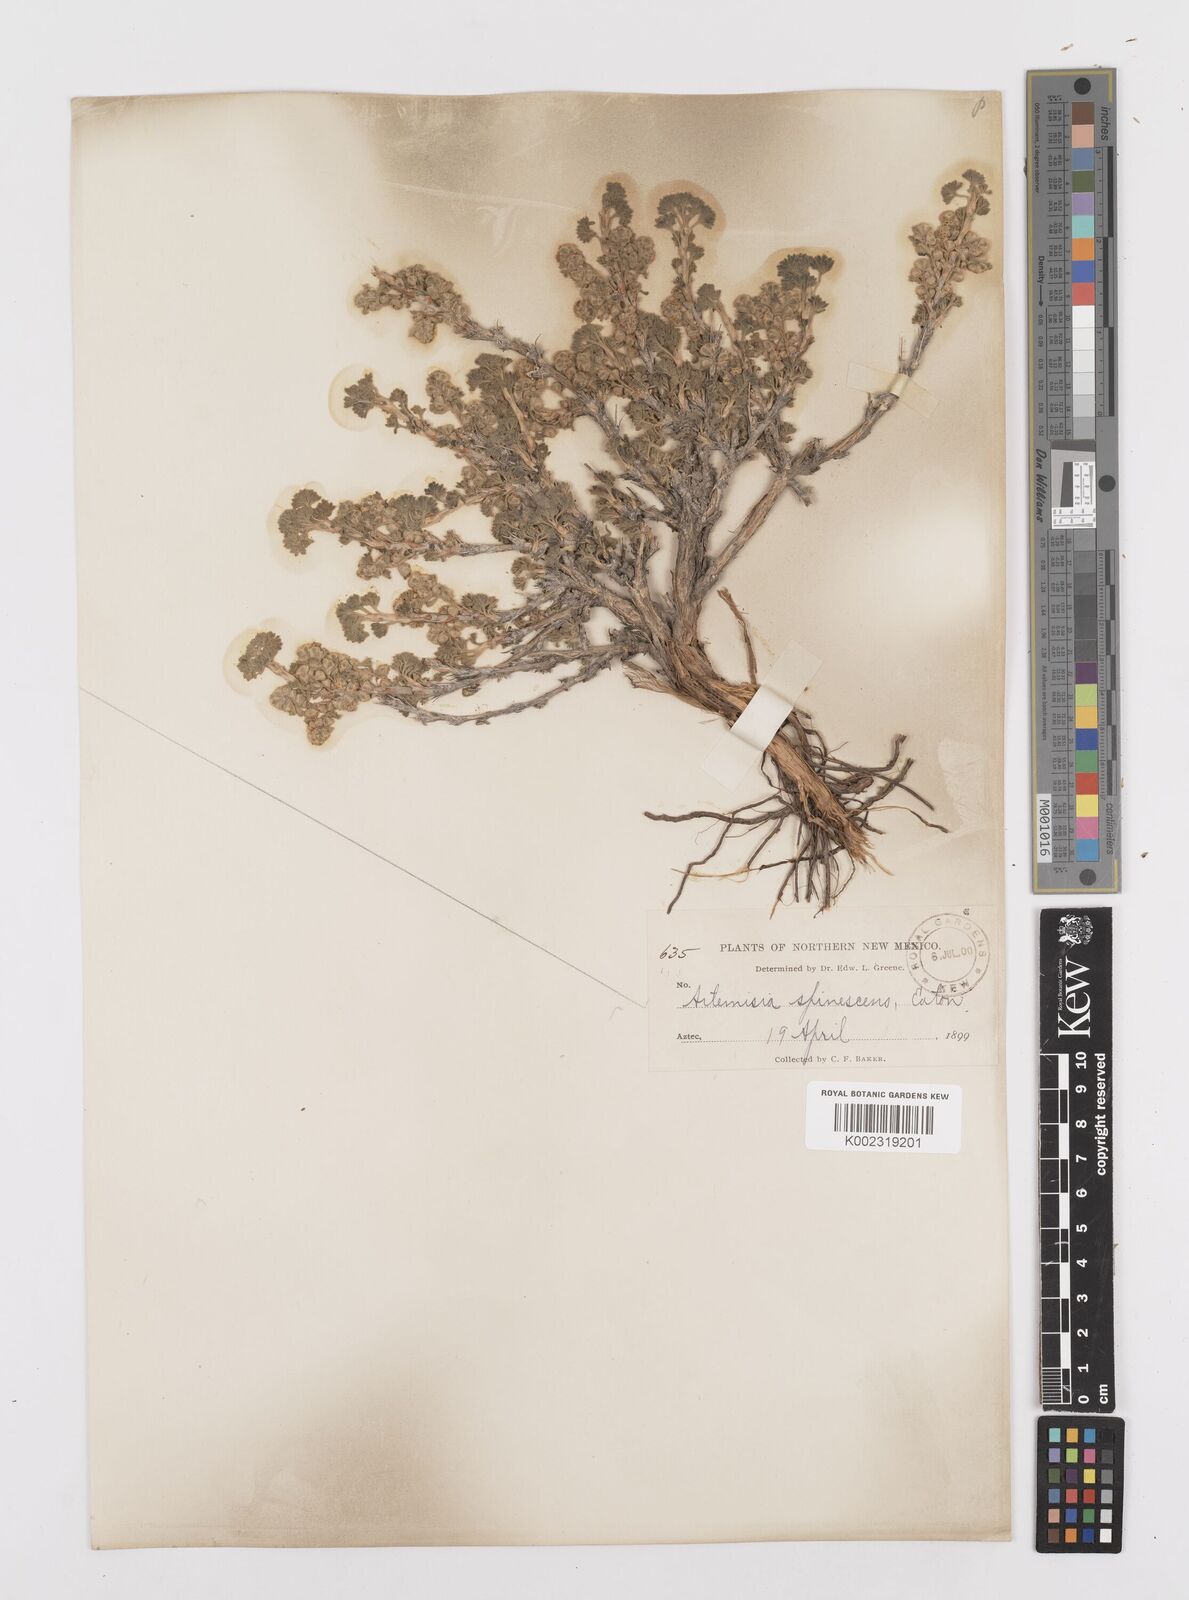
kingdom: Plantae
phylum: Tracheophyta
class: Magnoliopsida
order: Asterales
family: Asteraceae
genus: Artemisia
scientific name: Artemisia spinescens
